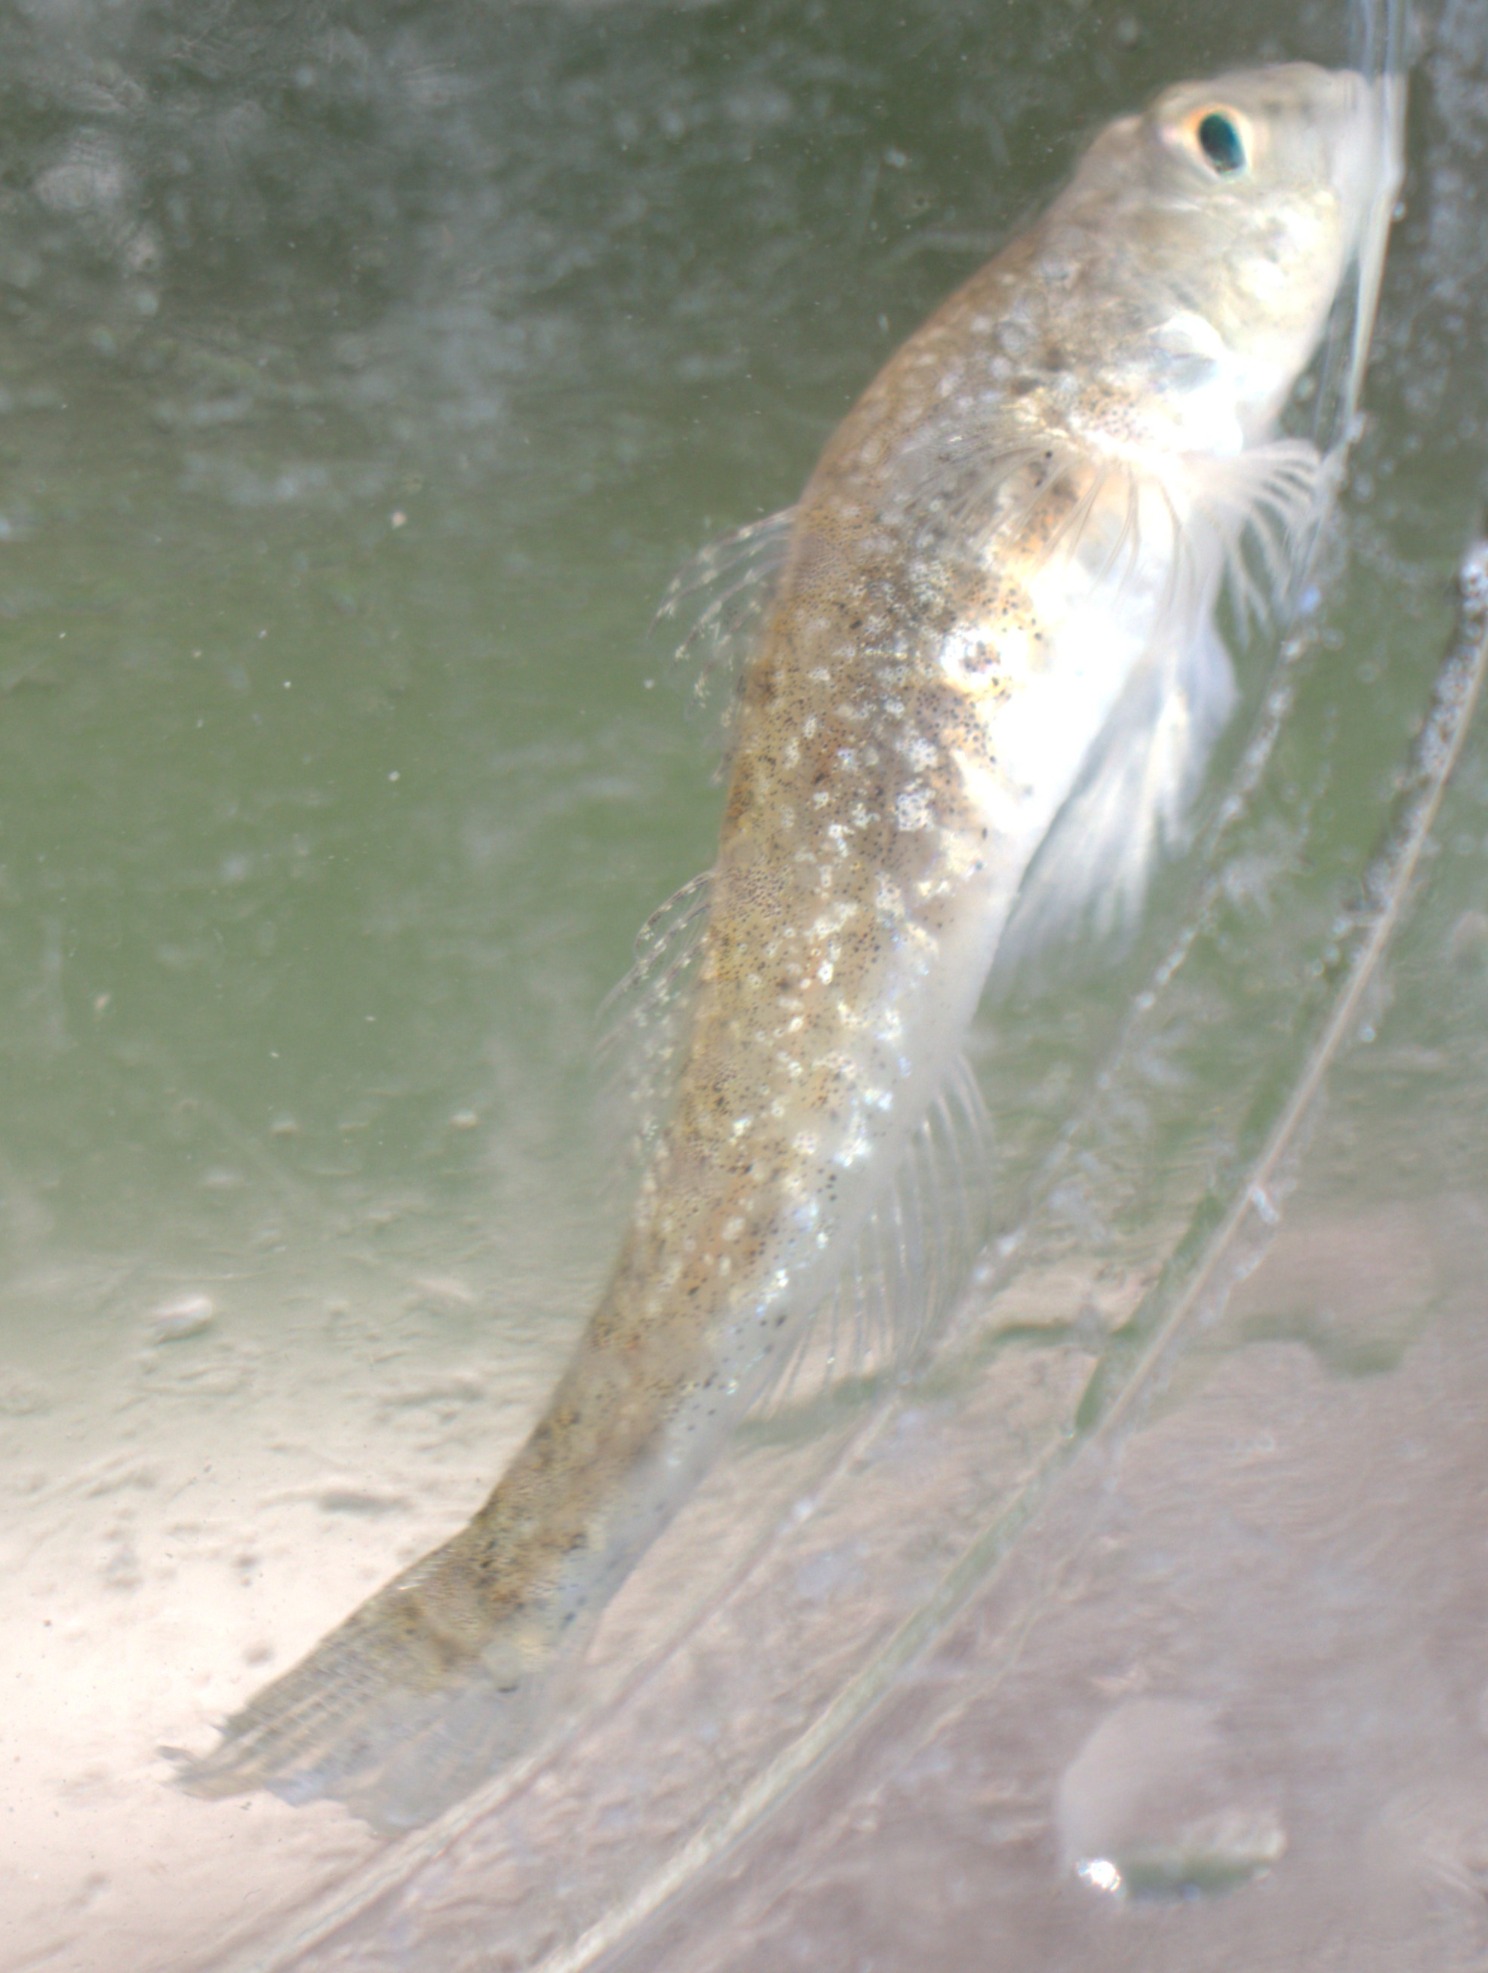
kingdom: Animalia
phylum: Chordata
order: Perciformes
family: Gobiidae
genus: Pomatoschistus
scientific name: Pomatoschistus microps
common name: Lerkutling
